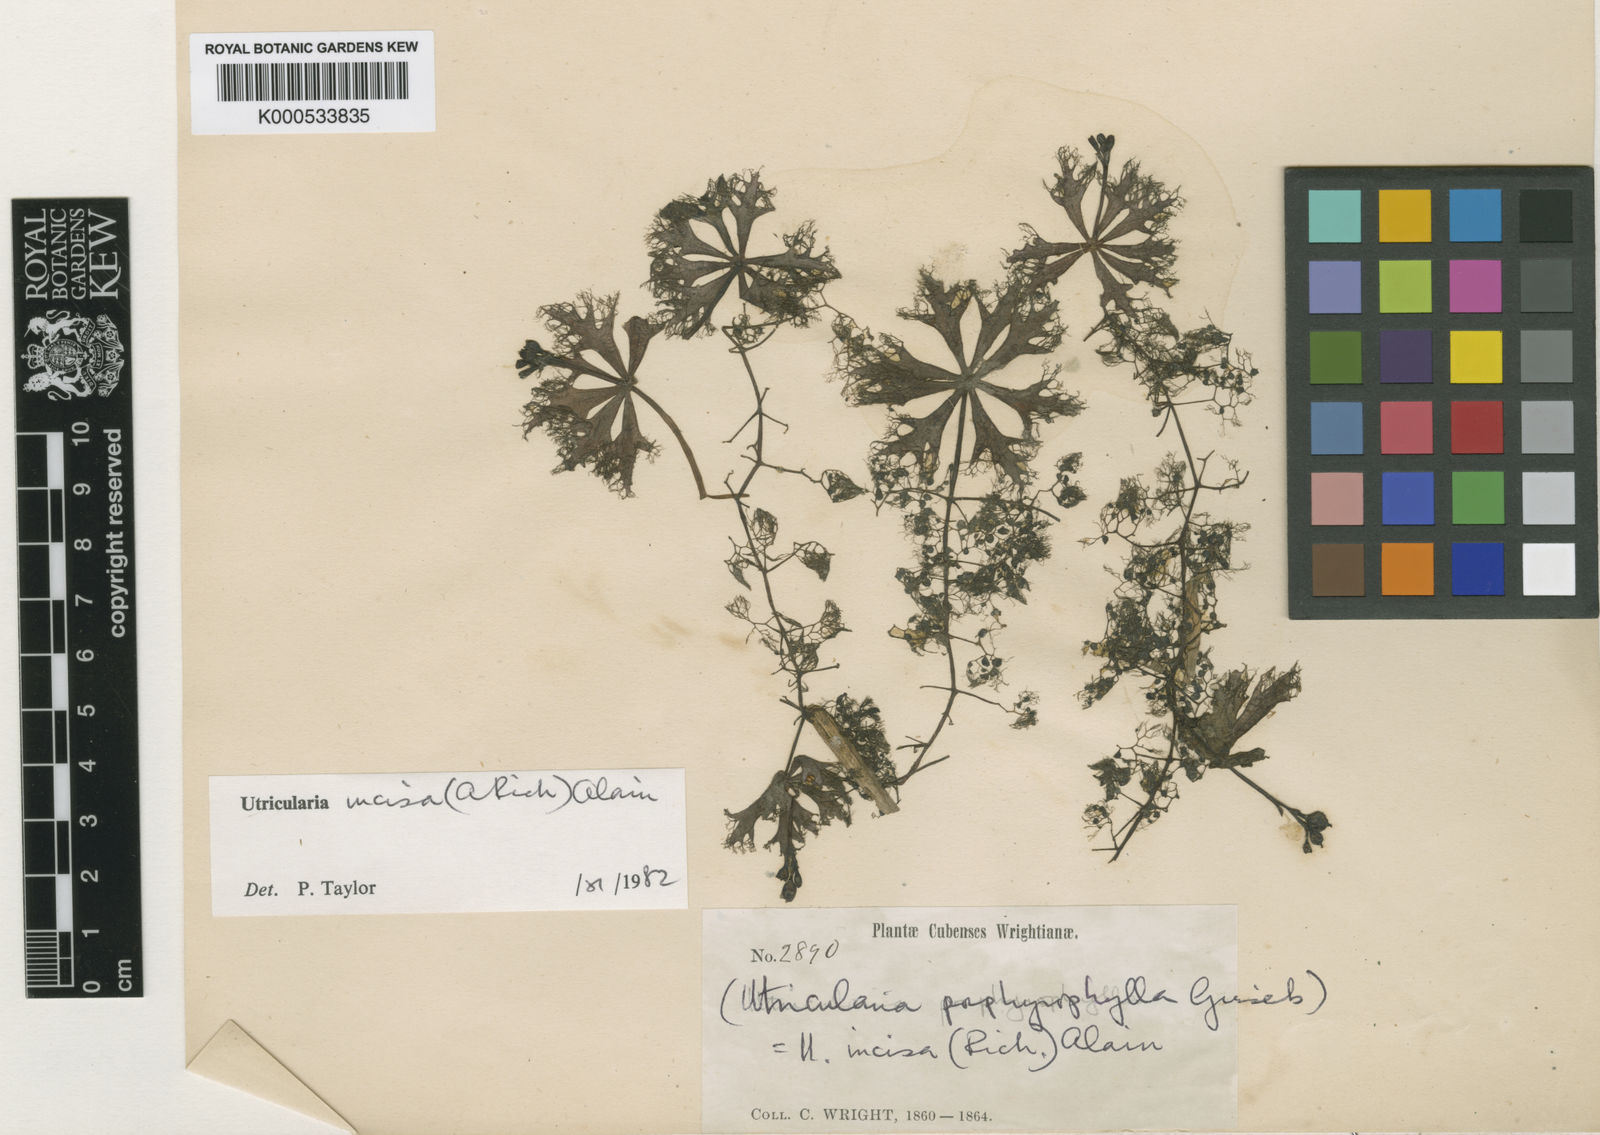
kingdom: Plantae
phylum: Tracheophyta
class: Magnoliopsida
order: Lamiales
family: Lentibulariaceae
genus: Utricularia
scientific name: Utricularia incisa
